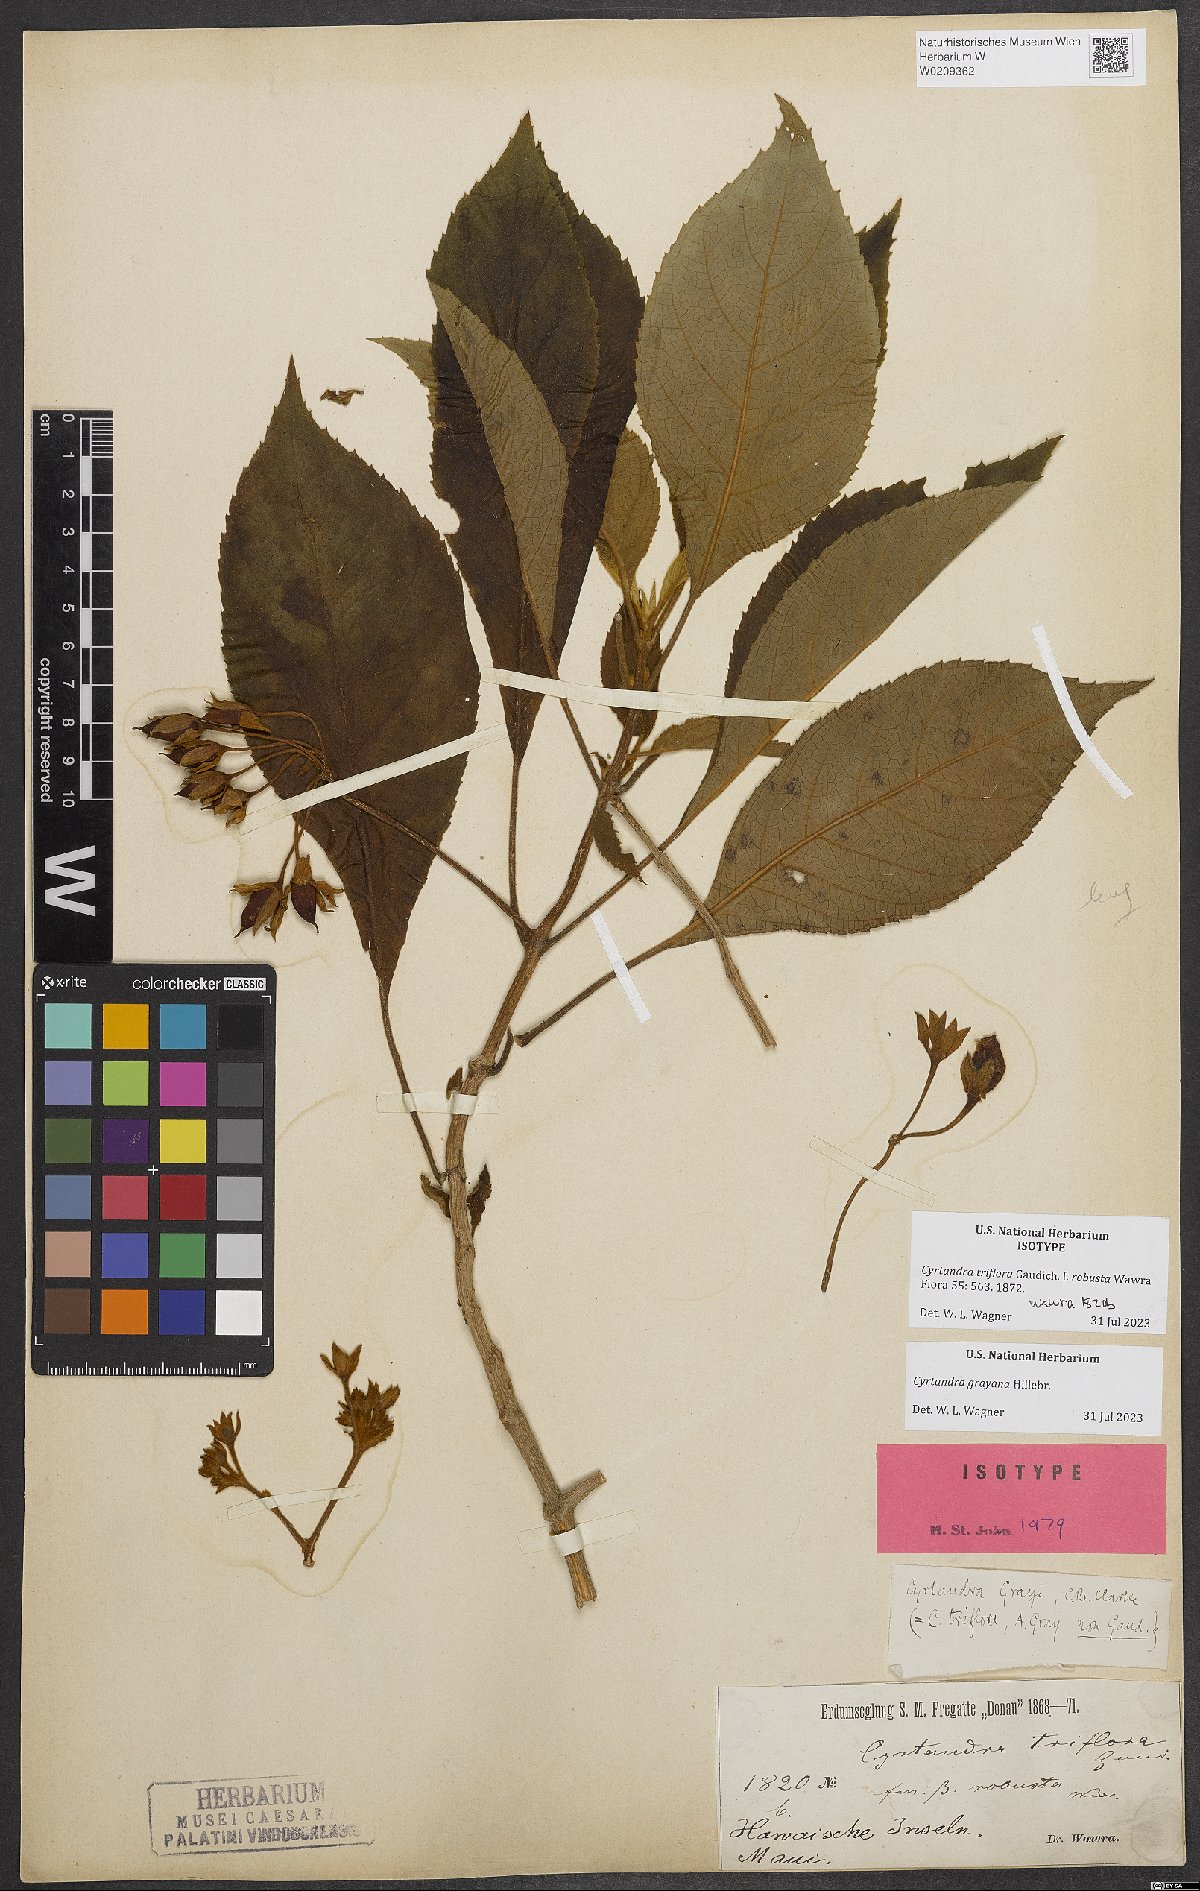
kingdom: Plantae
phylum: Tracheophyta
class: Magnoliopsida
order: Lamiales
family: Gesneriaceae
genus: Cyrtandra
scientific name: Cyrtandra grayana
